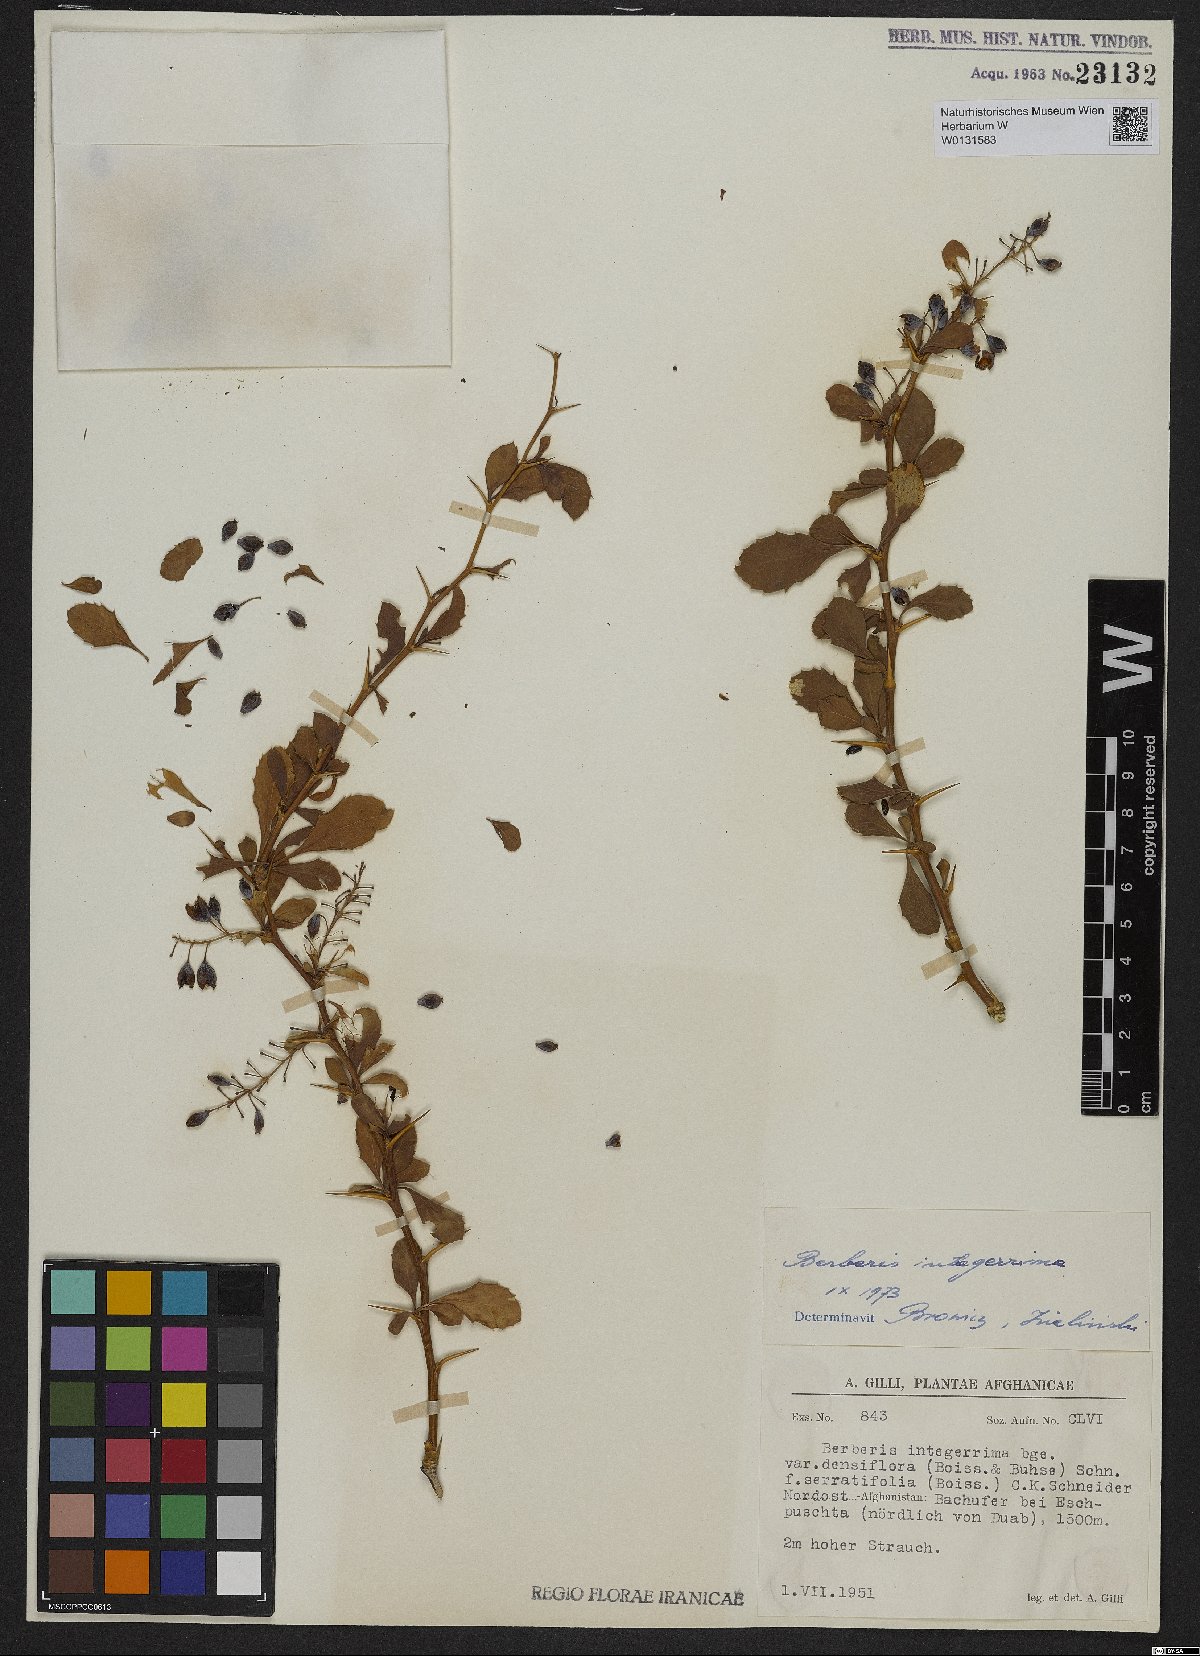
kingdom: Plantae
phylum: Tracheophyta
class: Magnoliopsida
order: Ranunculales
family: Berberidaceae
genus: Berberis
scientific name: Berberis integerrima
